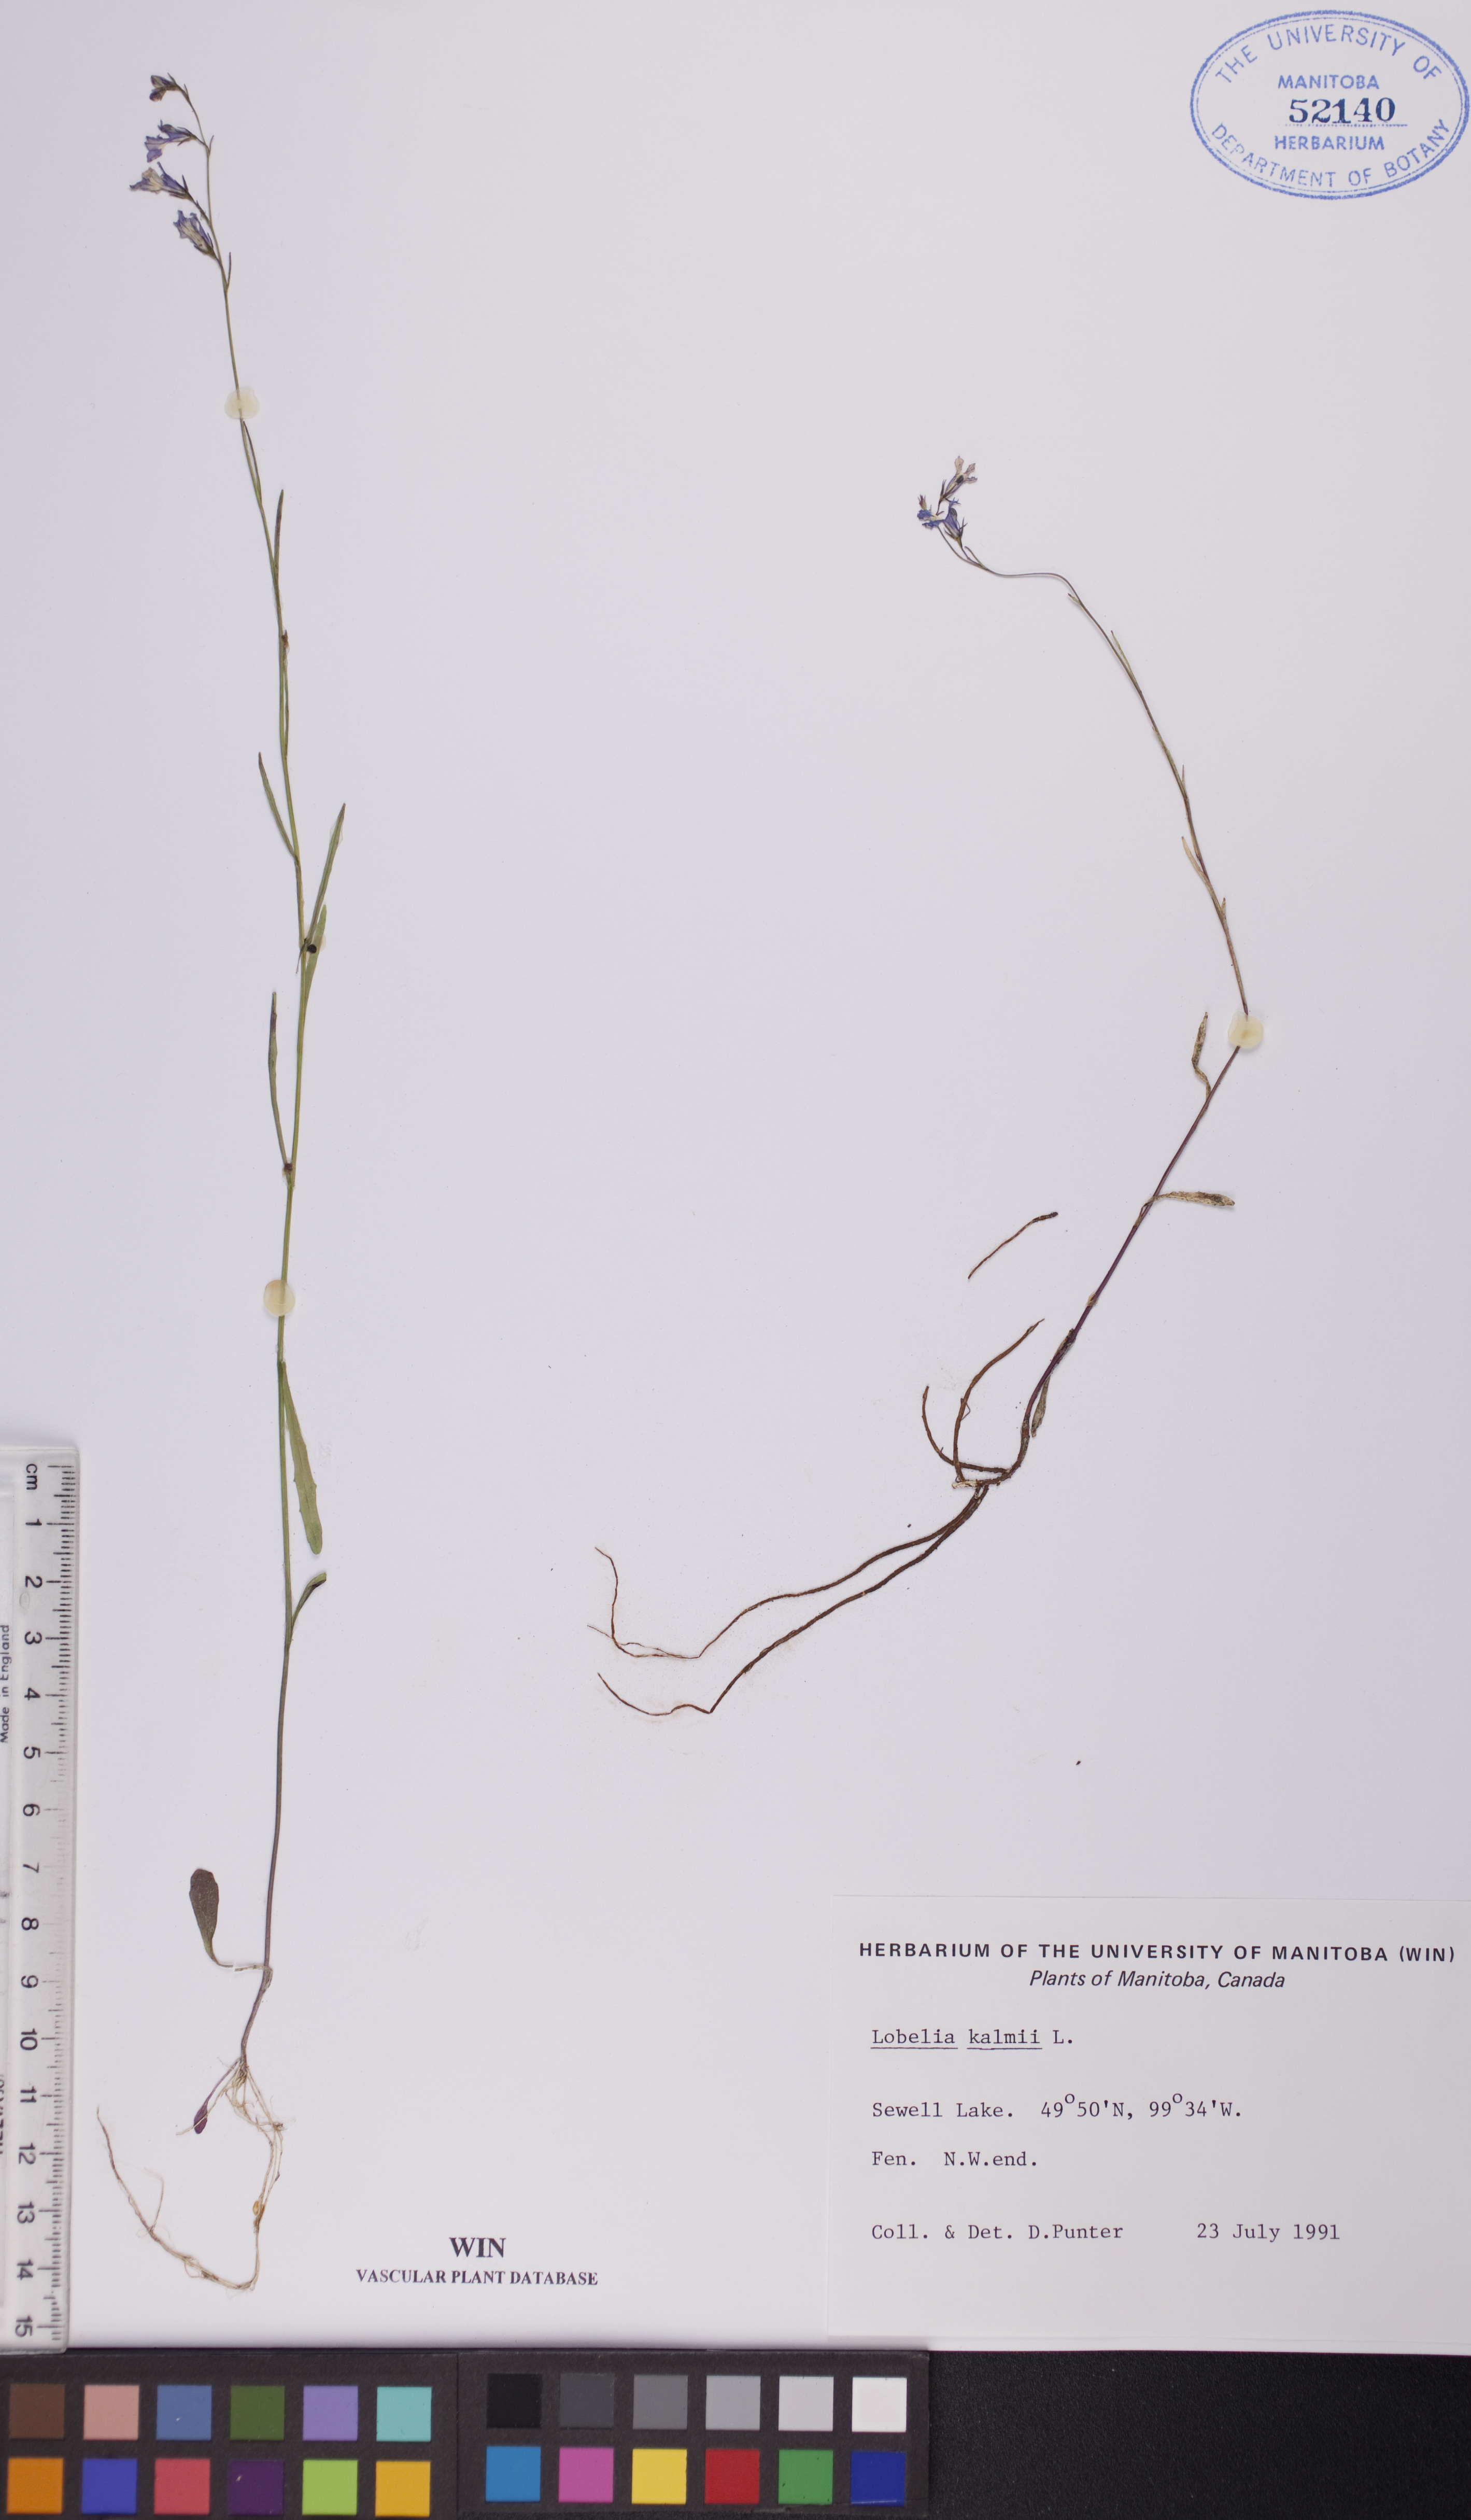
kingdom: Plantae
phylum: Tracheophyta
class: Magnoliopsida
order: Asterales
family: Campanulaceae
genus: Lobelia
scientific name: Lobelia kalmii
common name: Kalm's lobelia
